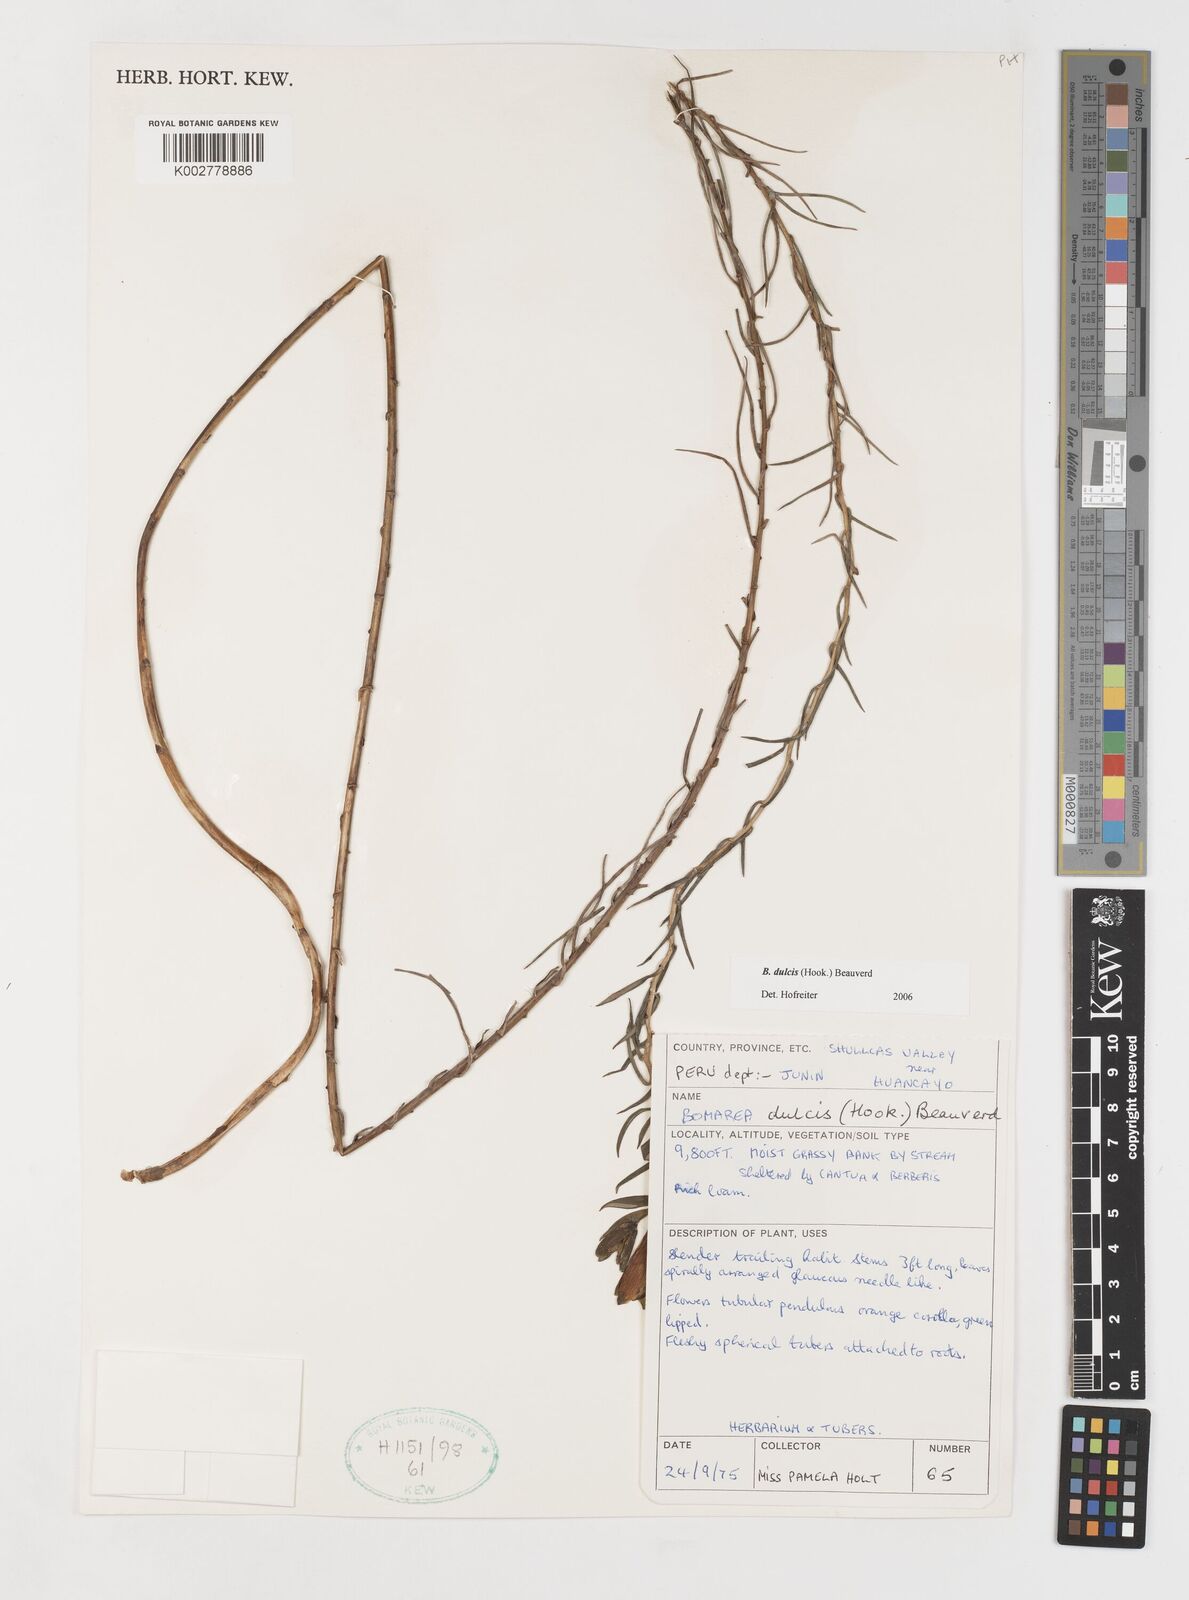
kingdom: Plantae
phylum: Tracheophyta
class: Liliopsida
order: Liliales
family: Alstroemeriaceae
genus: Bomarea
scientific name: Bomarea dulcis
